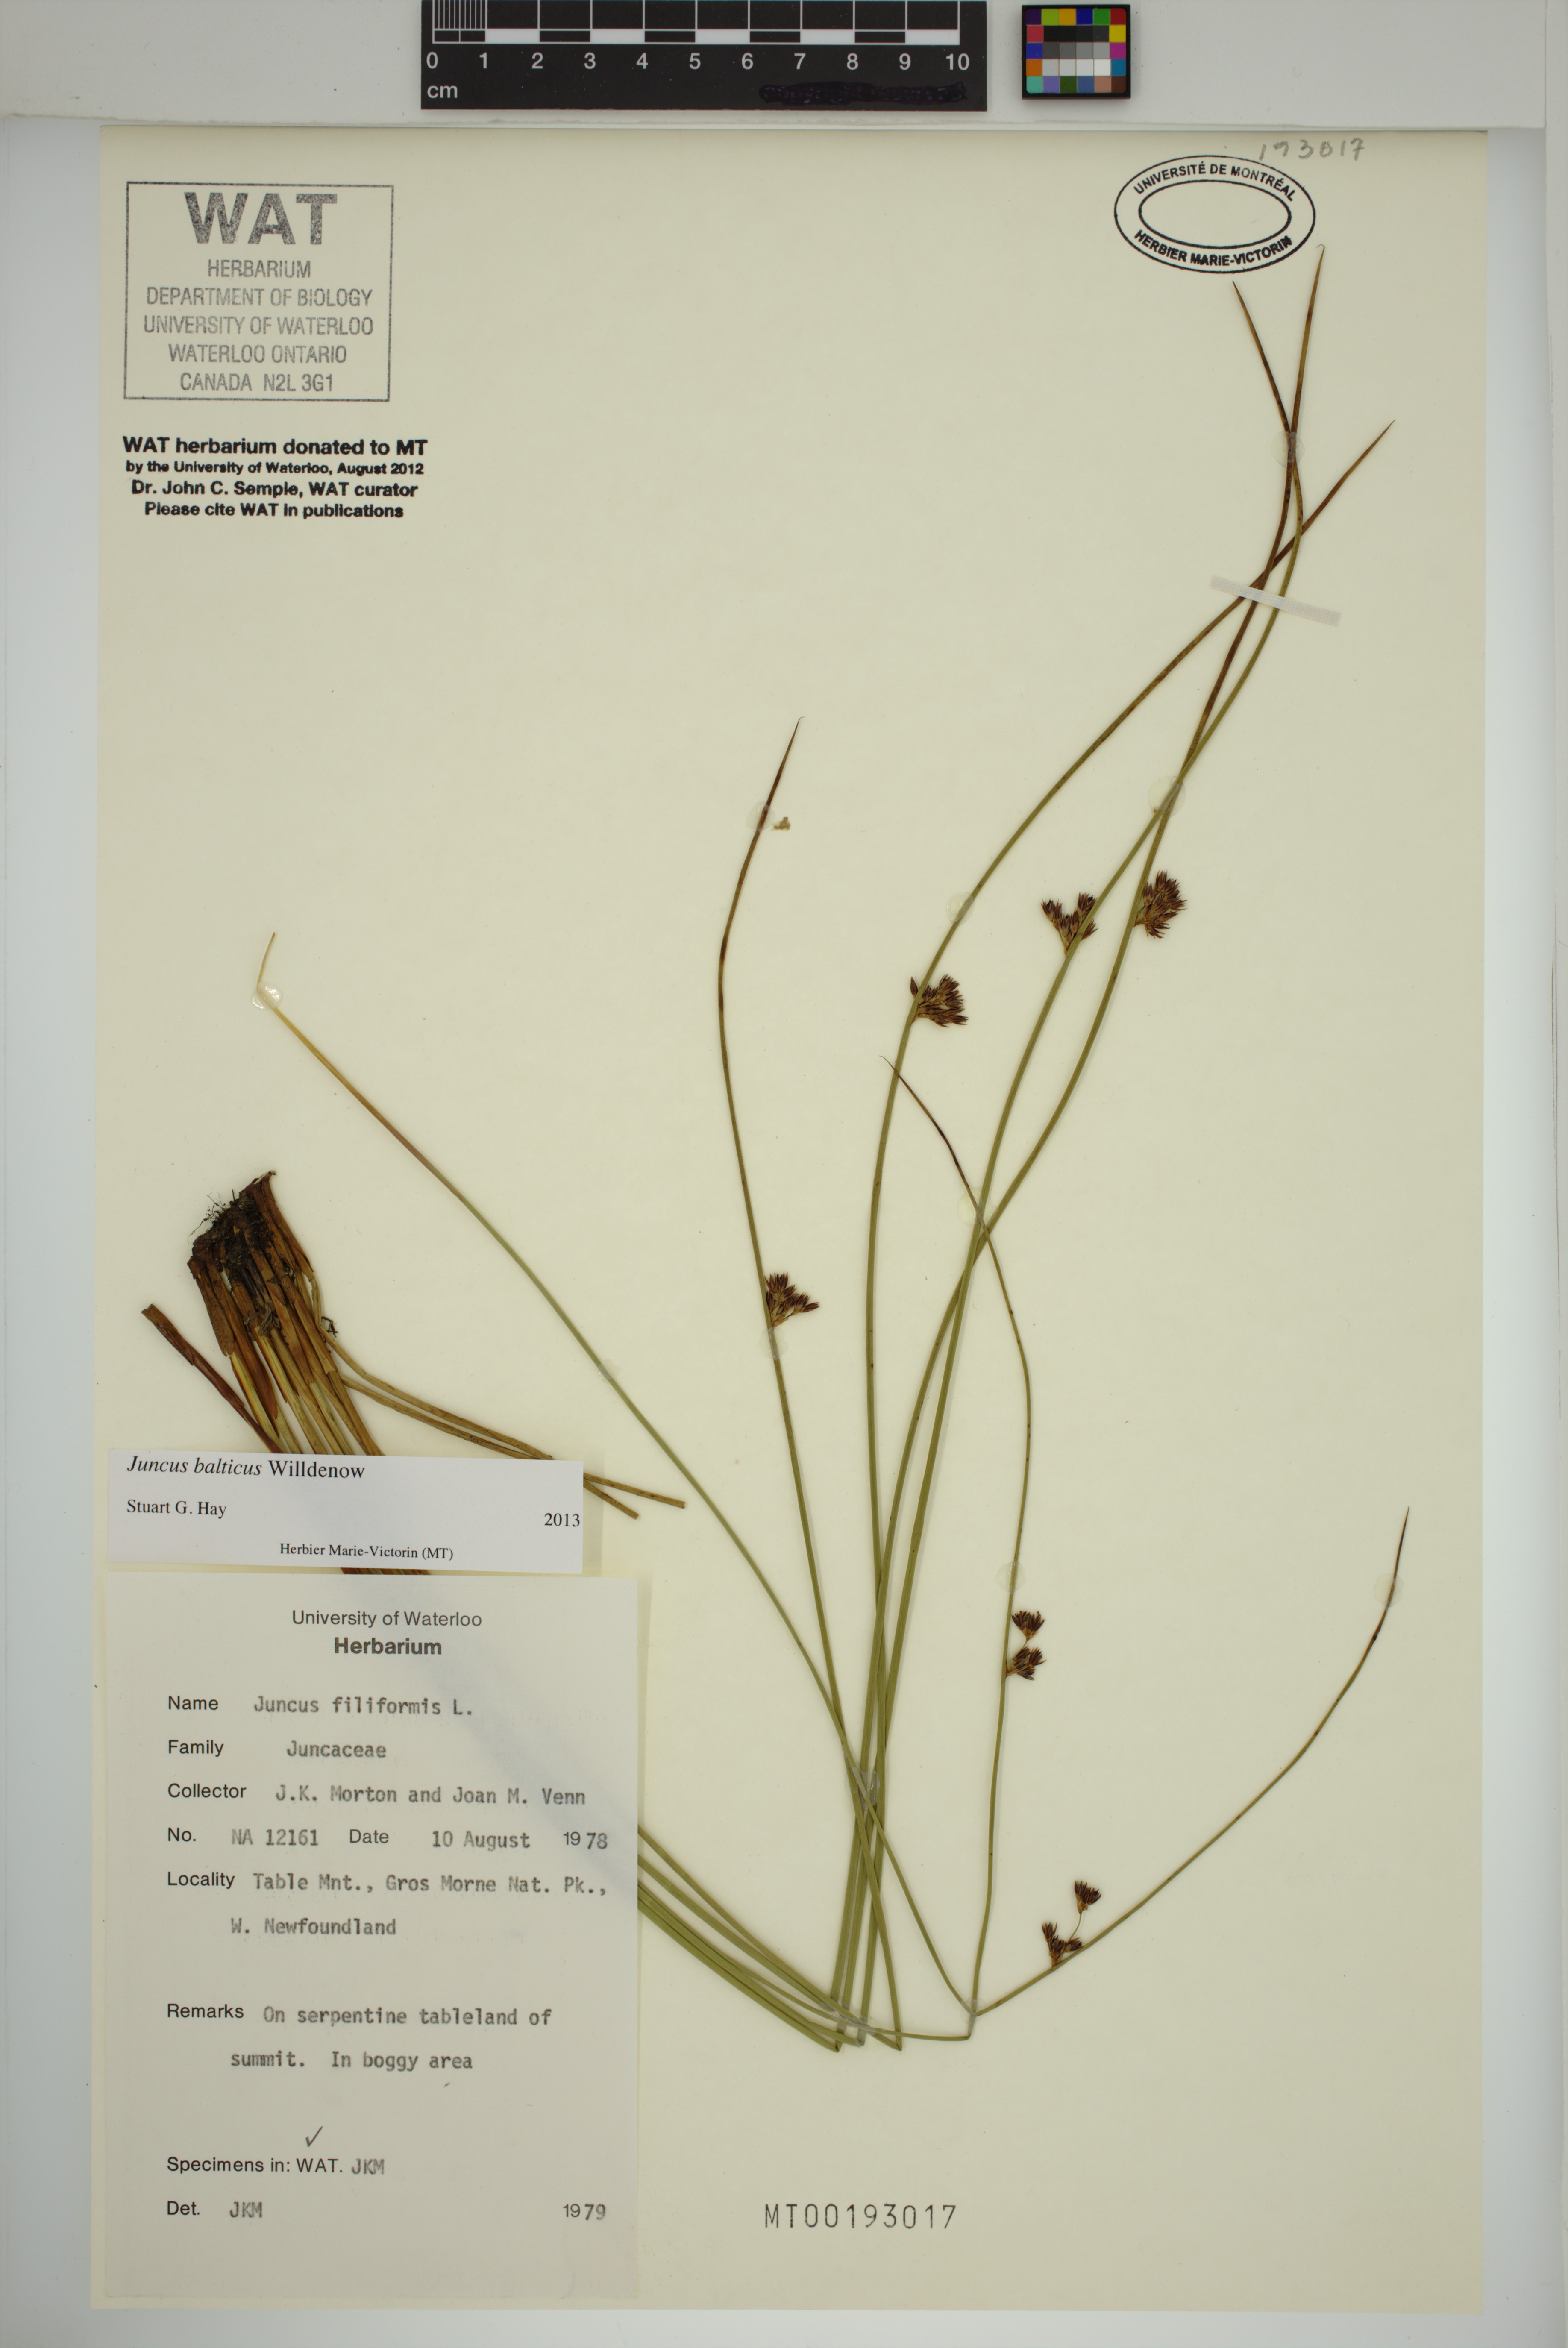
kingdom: Plantae
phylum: Tracheophyta
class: Liliopsida
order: Poales
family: Juncaceae
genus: Juncus
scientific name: Juncus balticus
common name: Baltic rush
